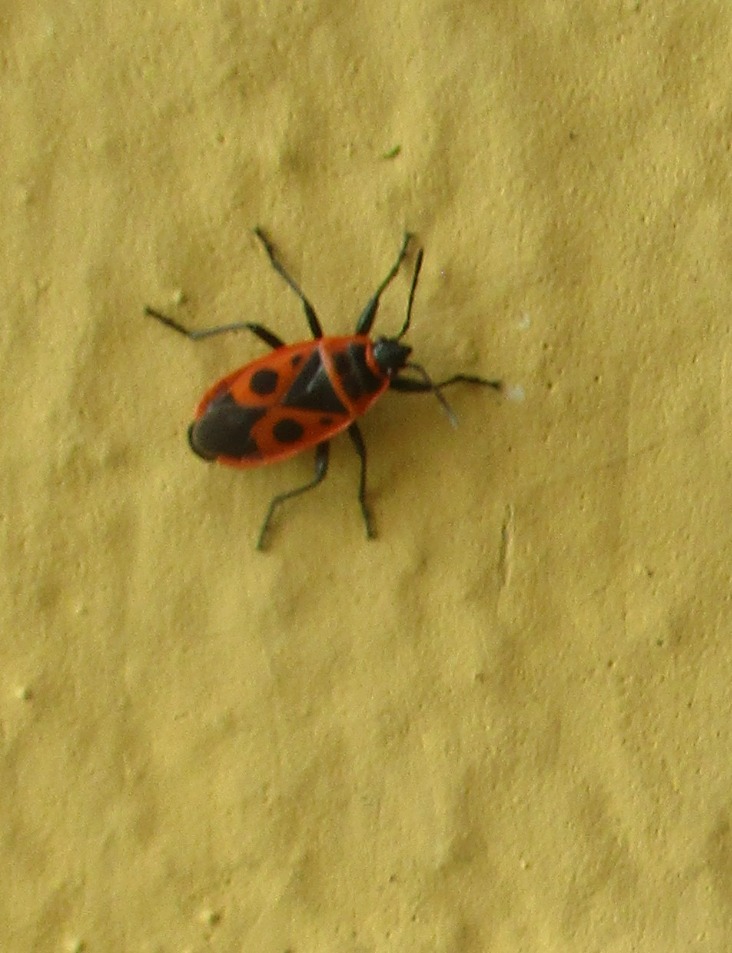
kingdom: Animalia
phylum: Arthropoda
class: Insecta
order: Hemiptera
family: Pyrrhocoridae
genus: Pyrrhocoris
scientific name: Pyrrhocoris apterus
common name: Ildtæge
